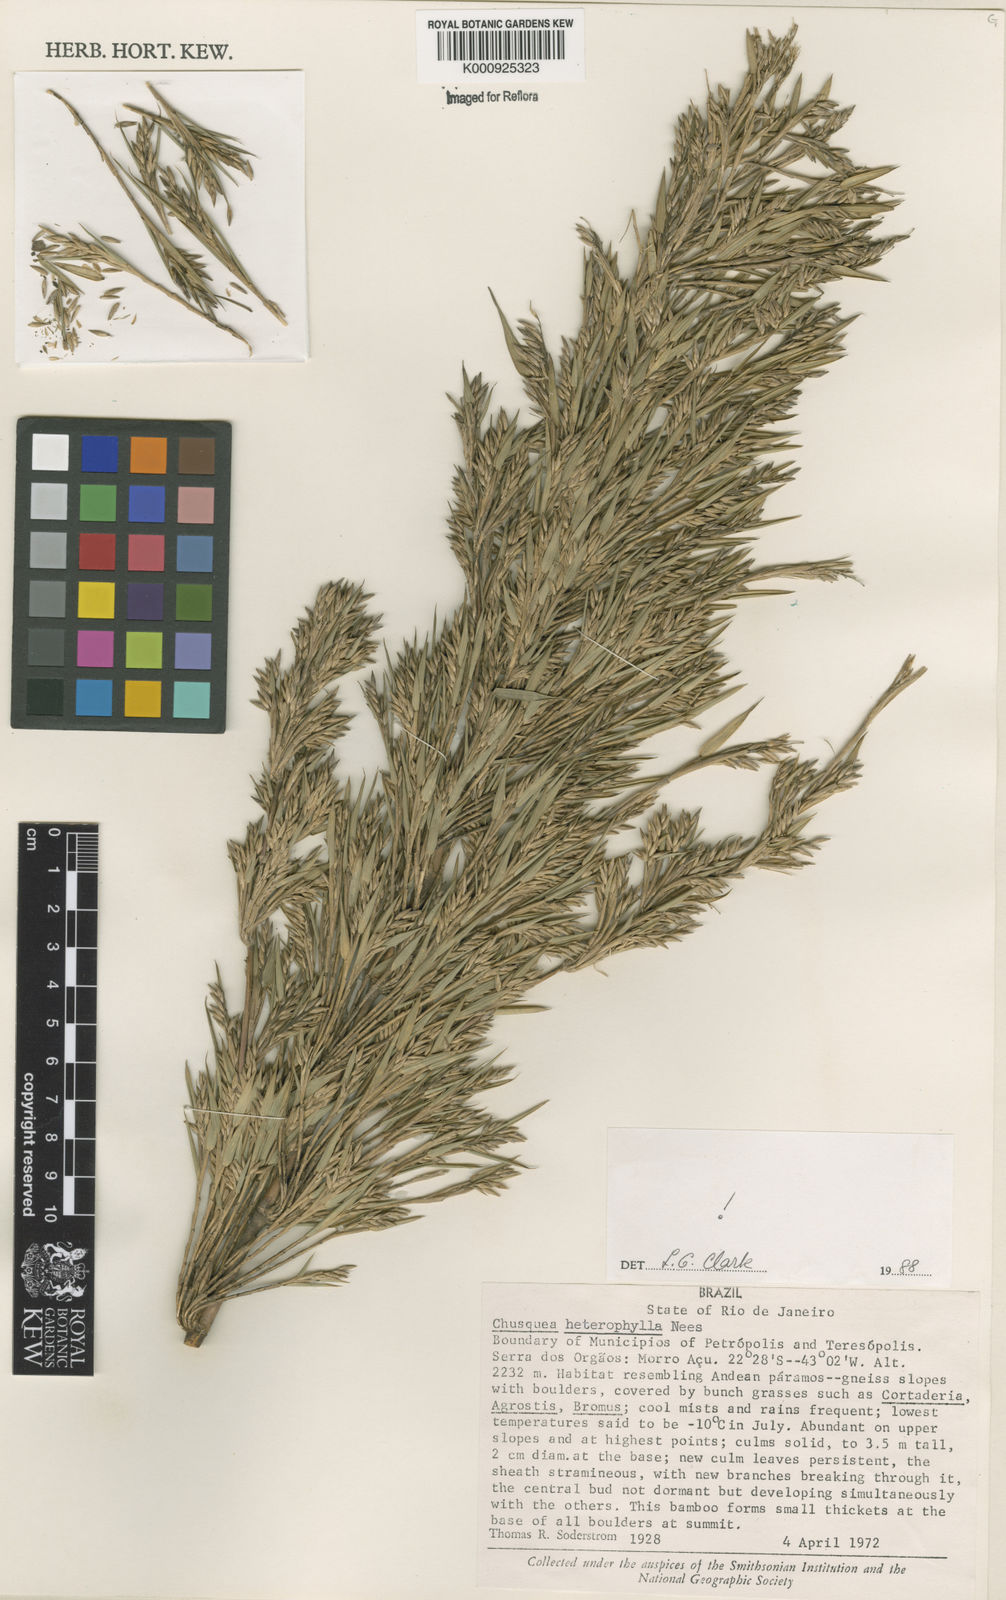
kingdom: Plantae
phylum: Tracheophyta
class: Liliopsida
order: Poales
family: Poaceae
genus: Chusquea
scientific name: Chusquea heterophylla
